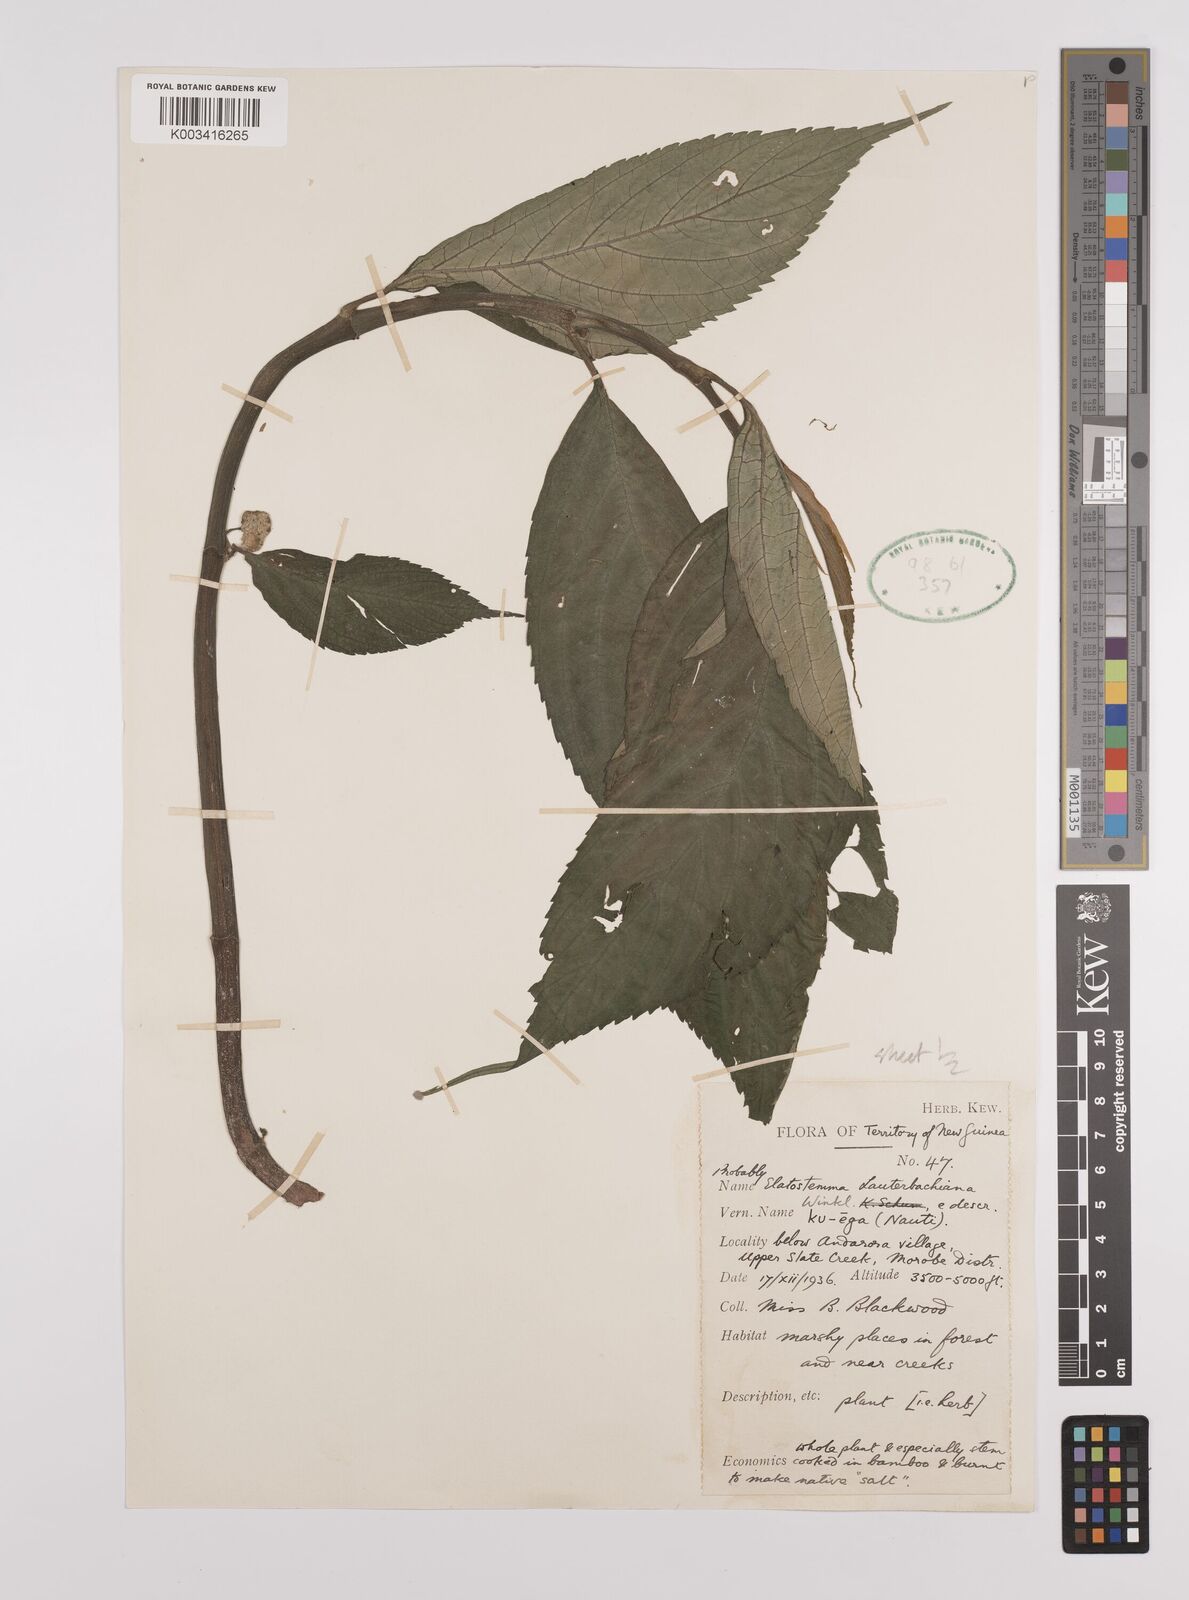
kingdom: Plantae
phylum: Tracheophyta
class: Magnoliopsida
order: Rosales
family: Urticaceae
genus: Elatostema
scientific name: Elatostema lauterbachii
